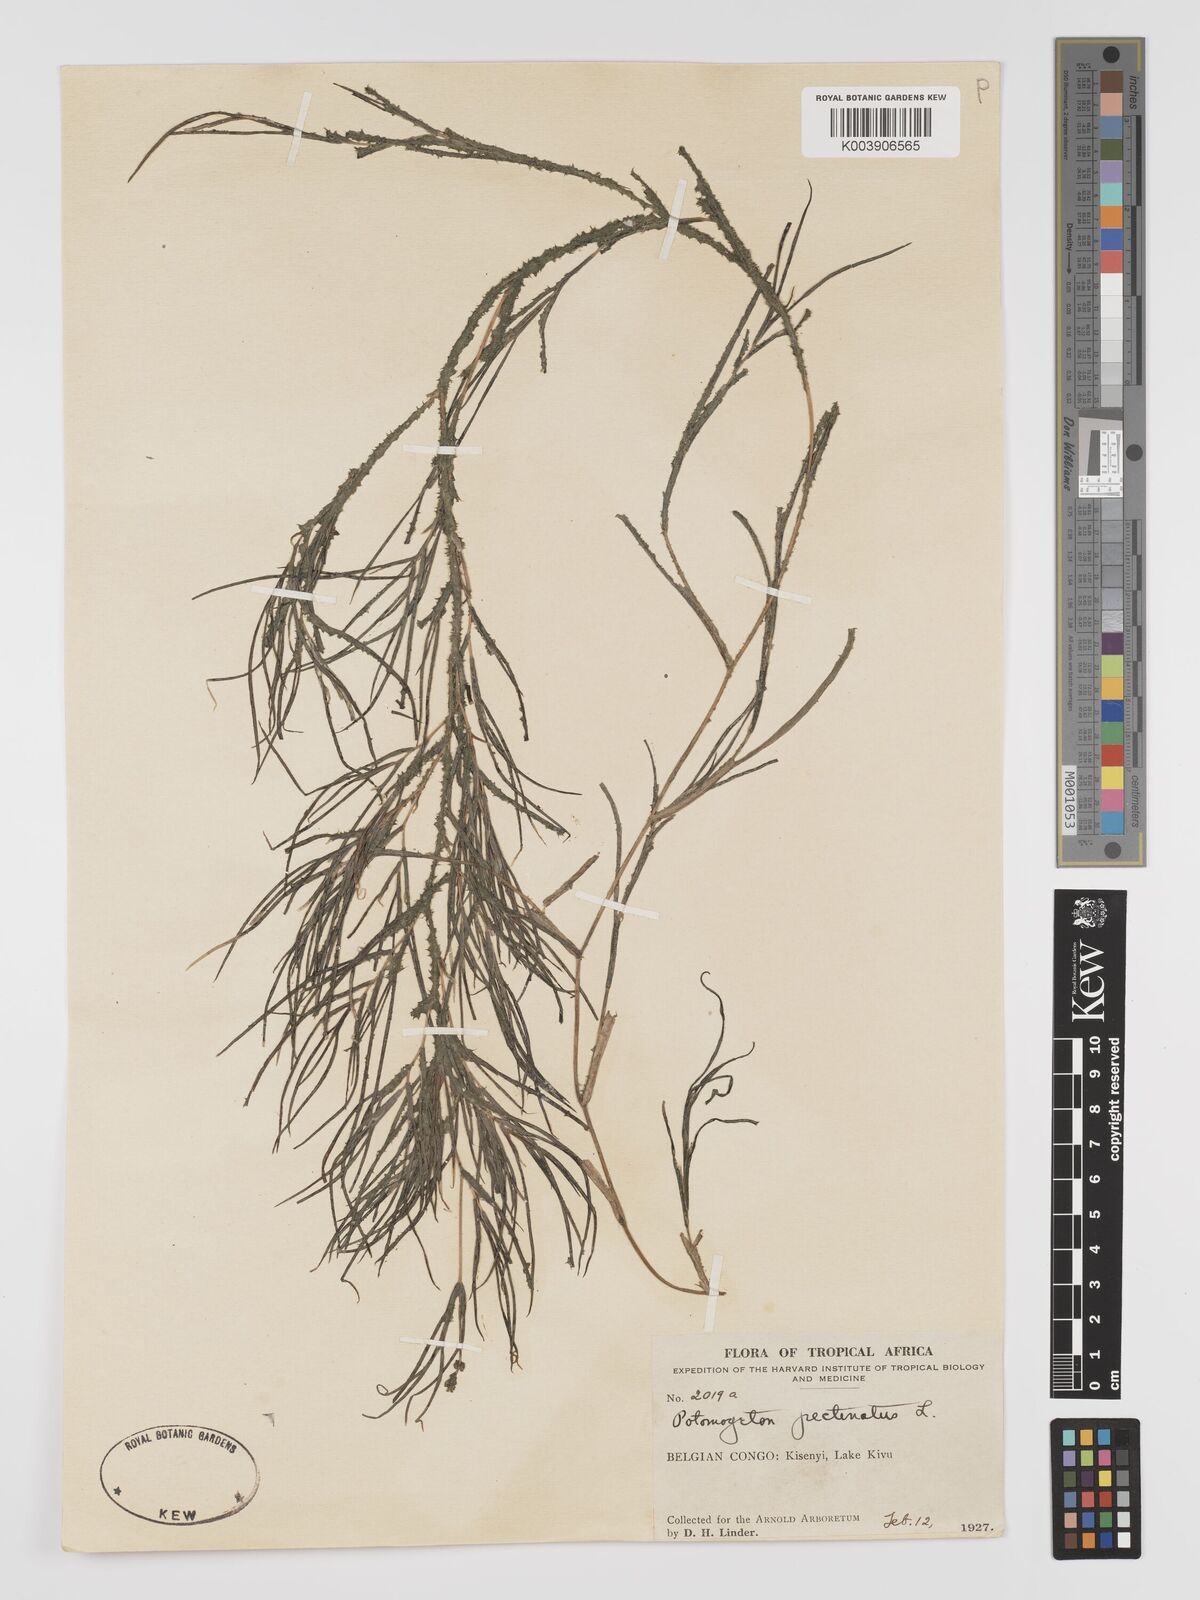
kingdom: Plantae
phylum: Tracheophyta
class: Liliopsida
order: Alismatales
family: Potamogetonaceae
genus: Stuckenia
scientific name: Stuckenia pectinata
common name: Sago pondweed
